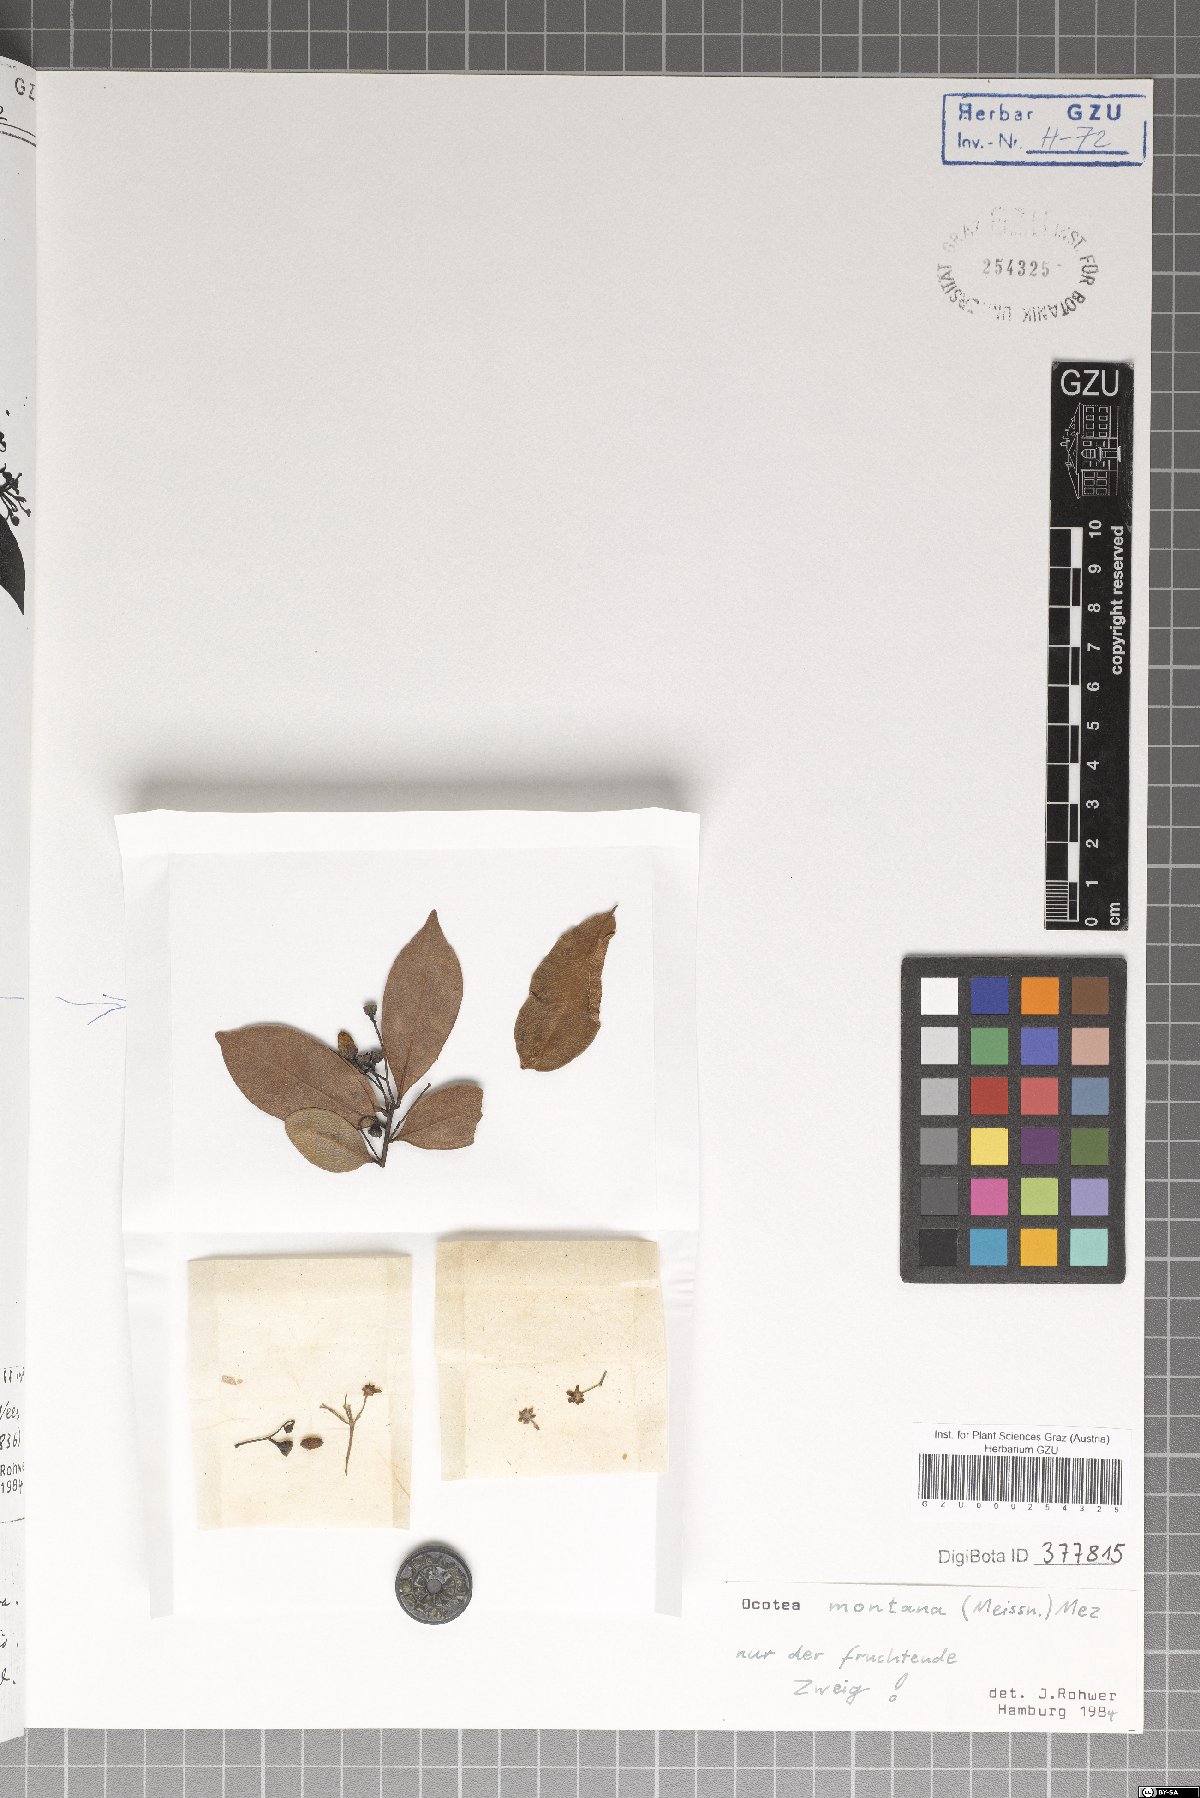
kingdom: Plantae
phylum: Tracheophyta
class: Magnoliopsida
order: Laurales
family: Lauraceae
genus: Mespilodaphne
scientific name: Mespilodaphne montana
